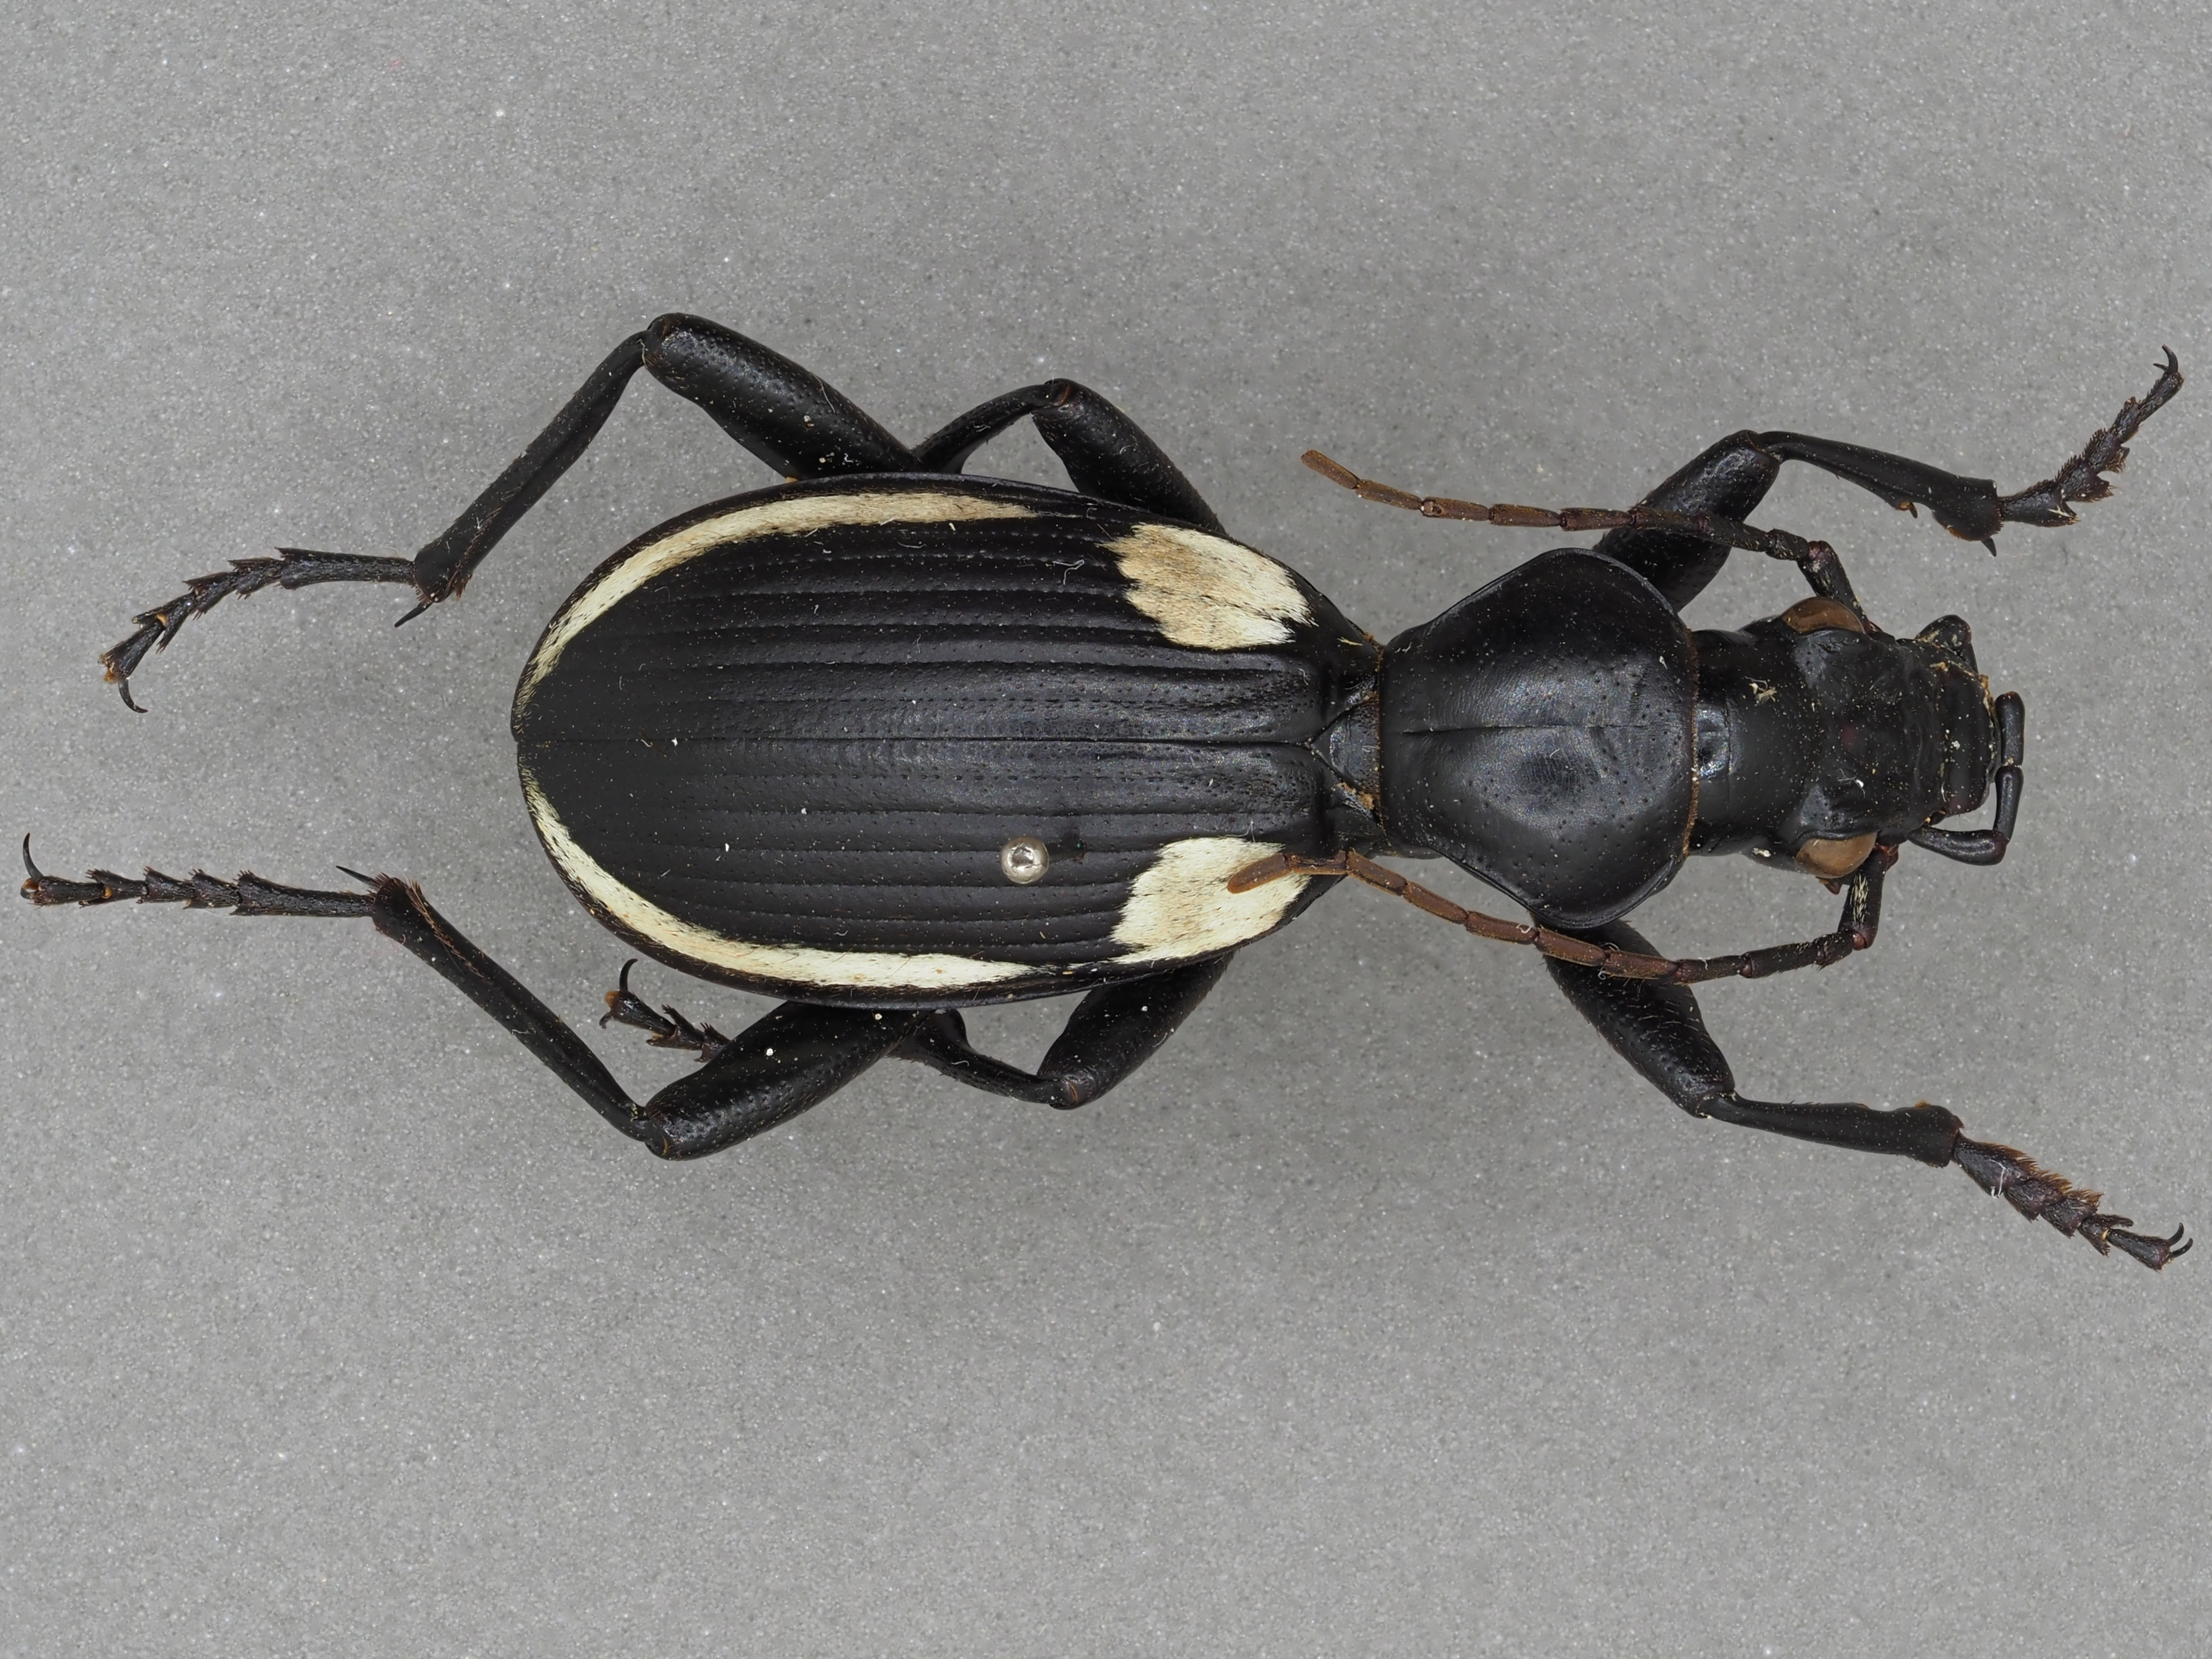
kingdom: Animalia
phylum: Arthropoda
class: Insecta
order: Coleoptera
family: Carabidae
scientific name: Carabidae
